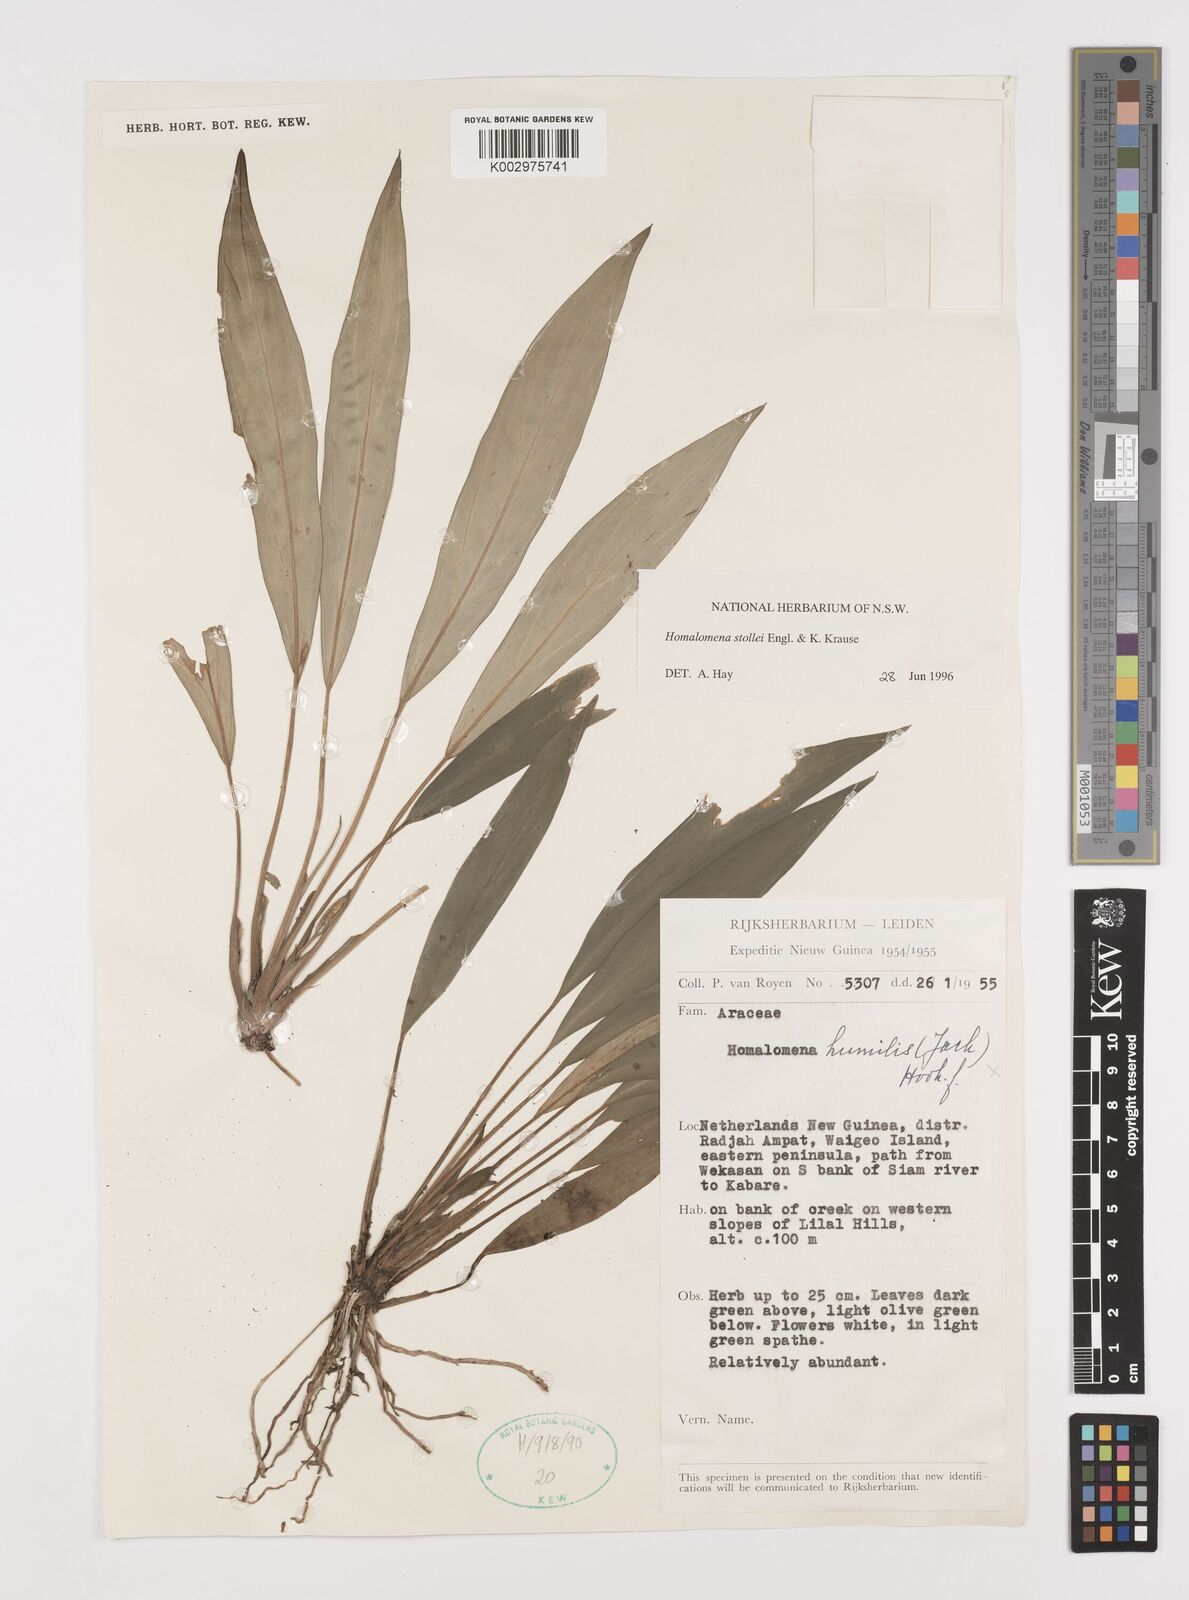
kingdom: Plantae
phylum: Tracheophyta
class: Liliopsida
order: Alismatales
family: Araceae
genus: Homalomena
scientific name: Homalomena stollei
